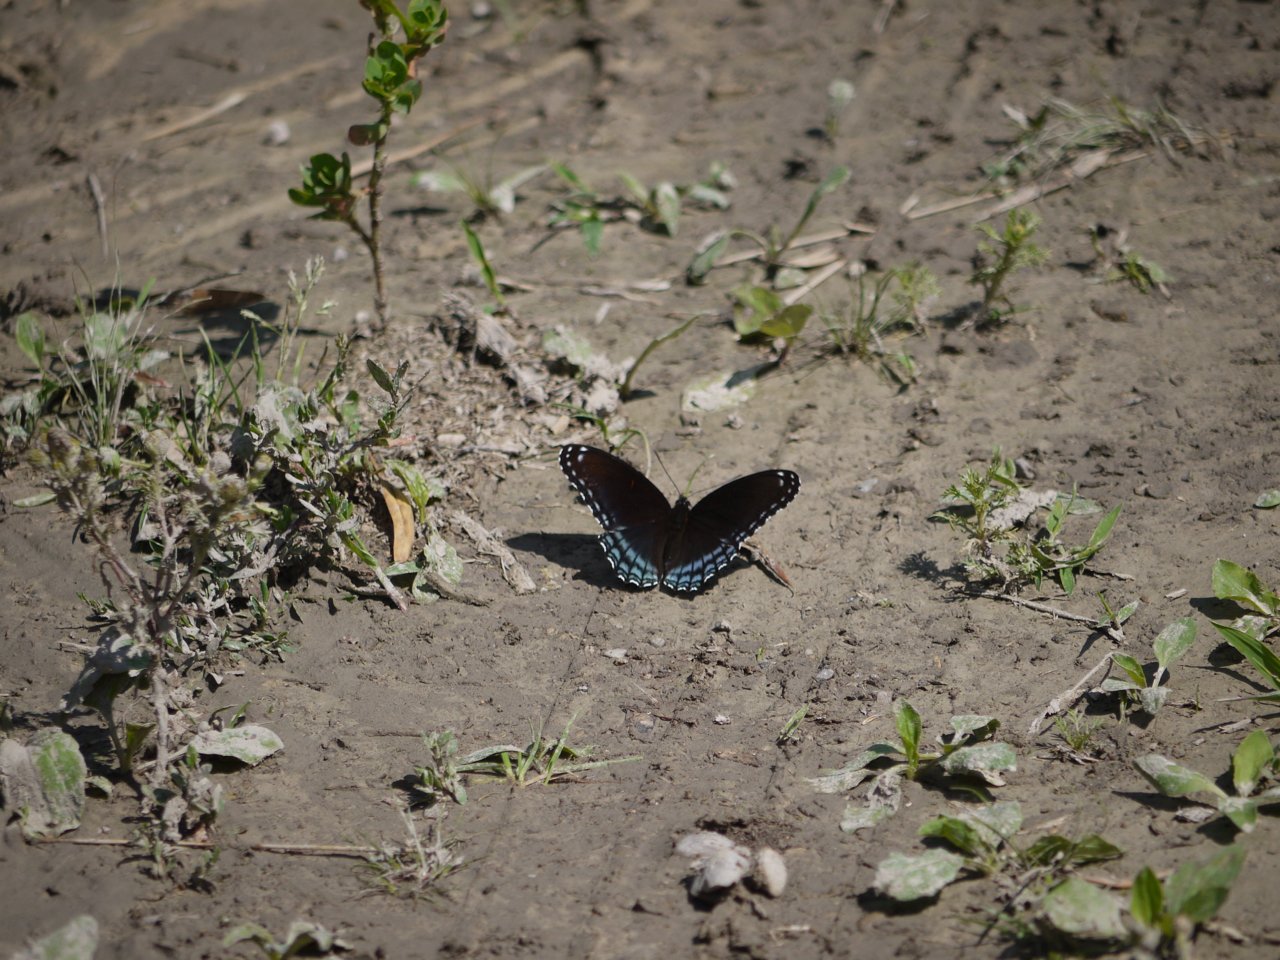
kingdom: Animalia
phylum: Arthropoda
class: Insecta
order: Lepidoptera
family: Nymphalidae
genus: Limenitis
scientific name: Limenitis astyanax
